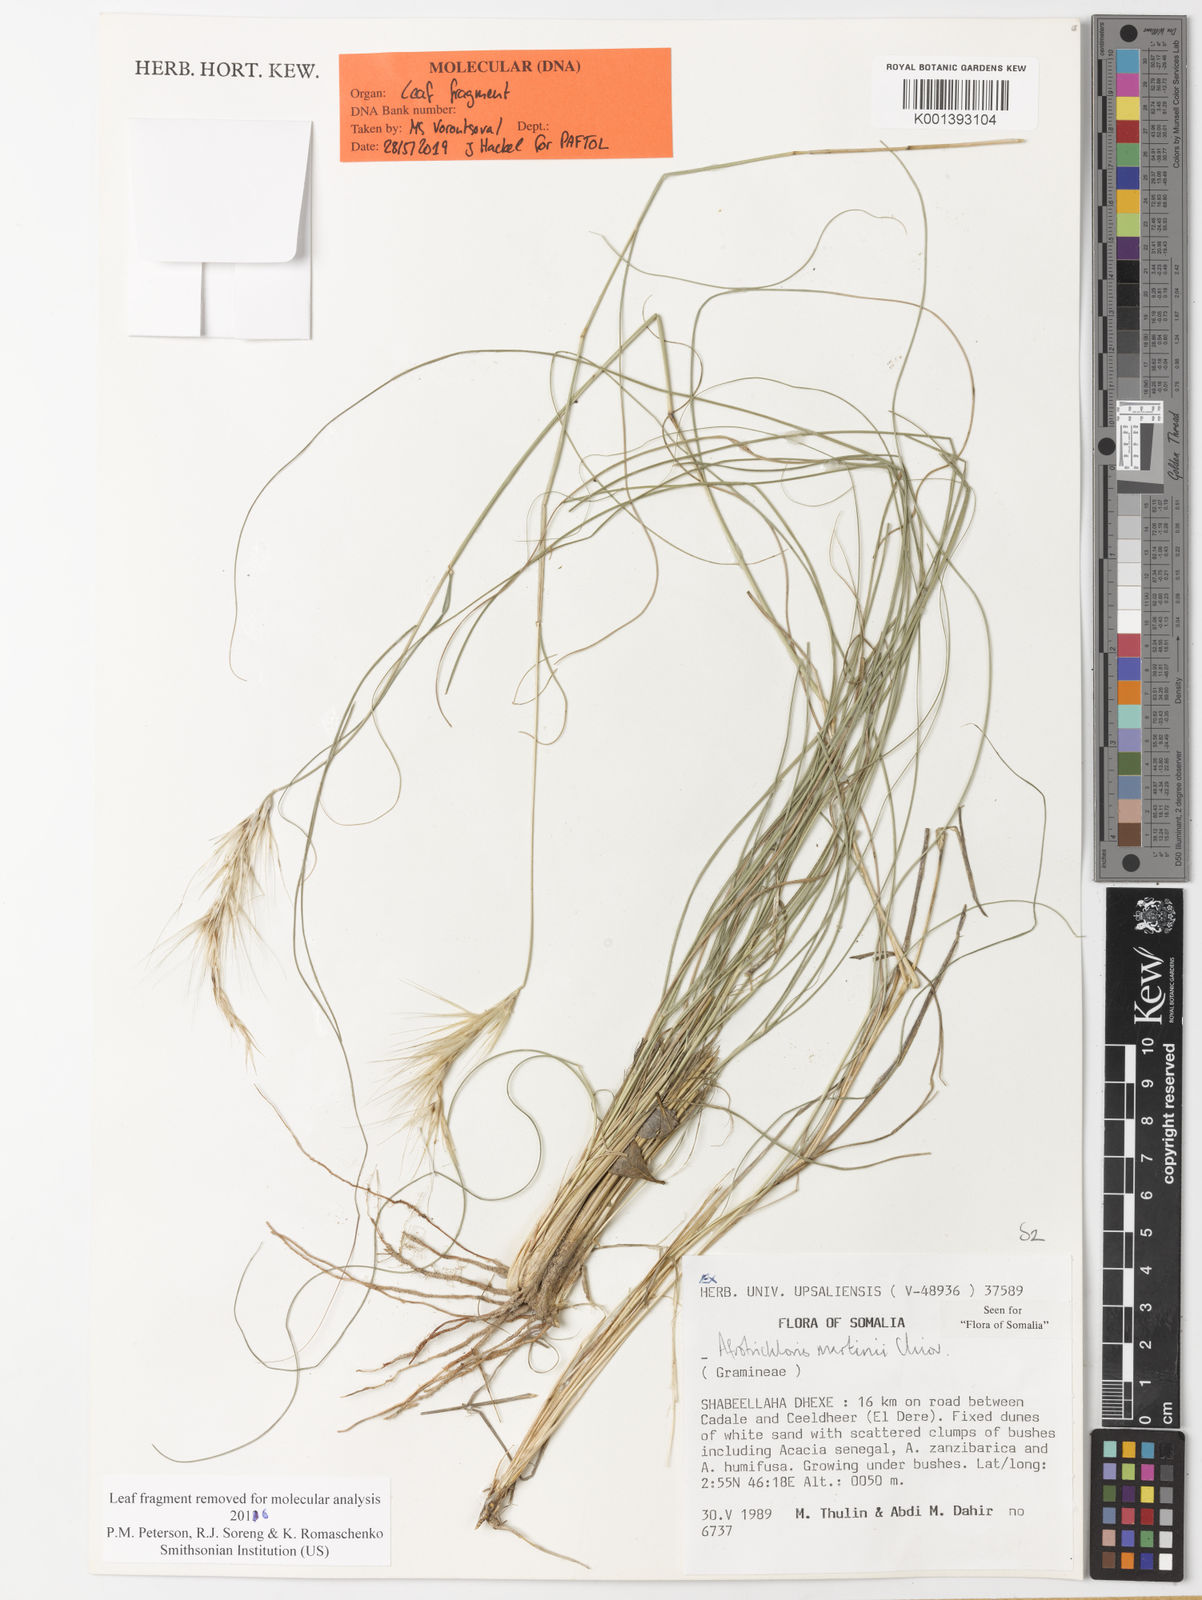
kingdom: Plantae
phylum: Tracheophyta
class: Liliopsida
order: Poales
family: Poaceae
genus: Afrotrichloris
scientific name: Afrotrichloris martinii
